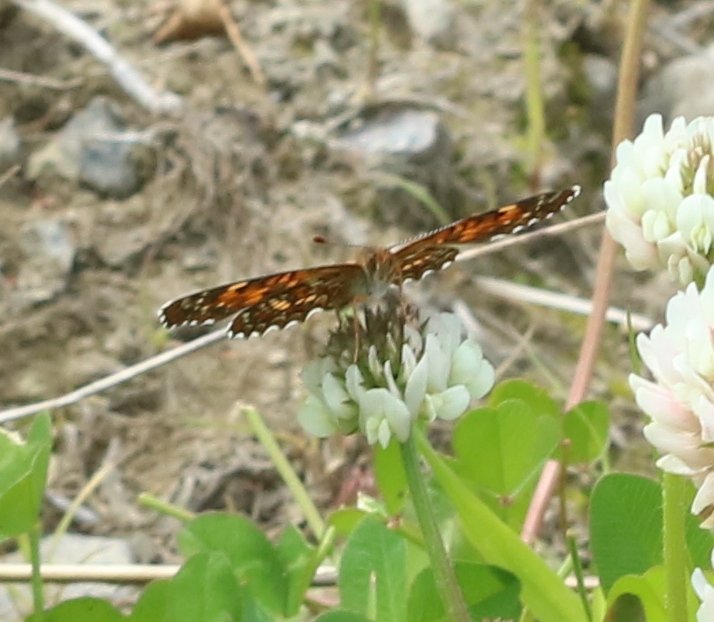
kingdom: Animalia
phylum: Arthropoda
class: Insecta
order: Lepidoptera
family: Nymphalidae
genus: Chlosyne
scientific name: Chlosyne harrisii
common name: Harris's Checkerspot
